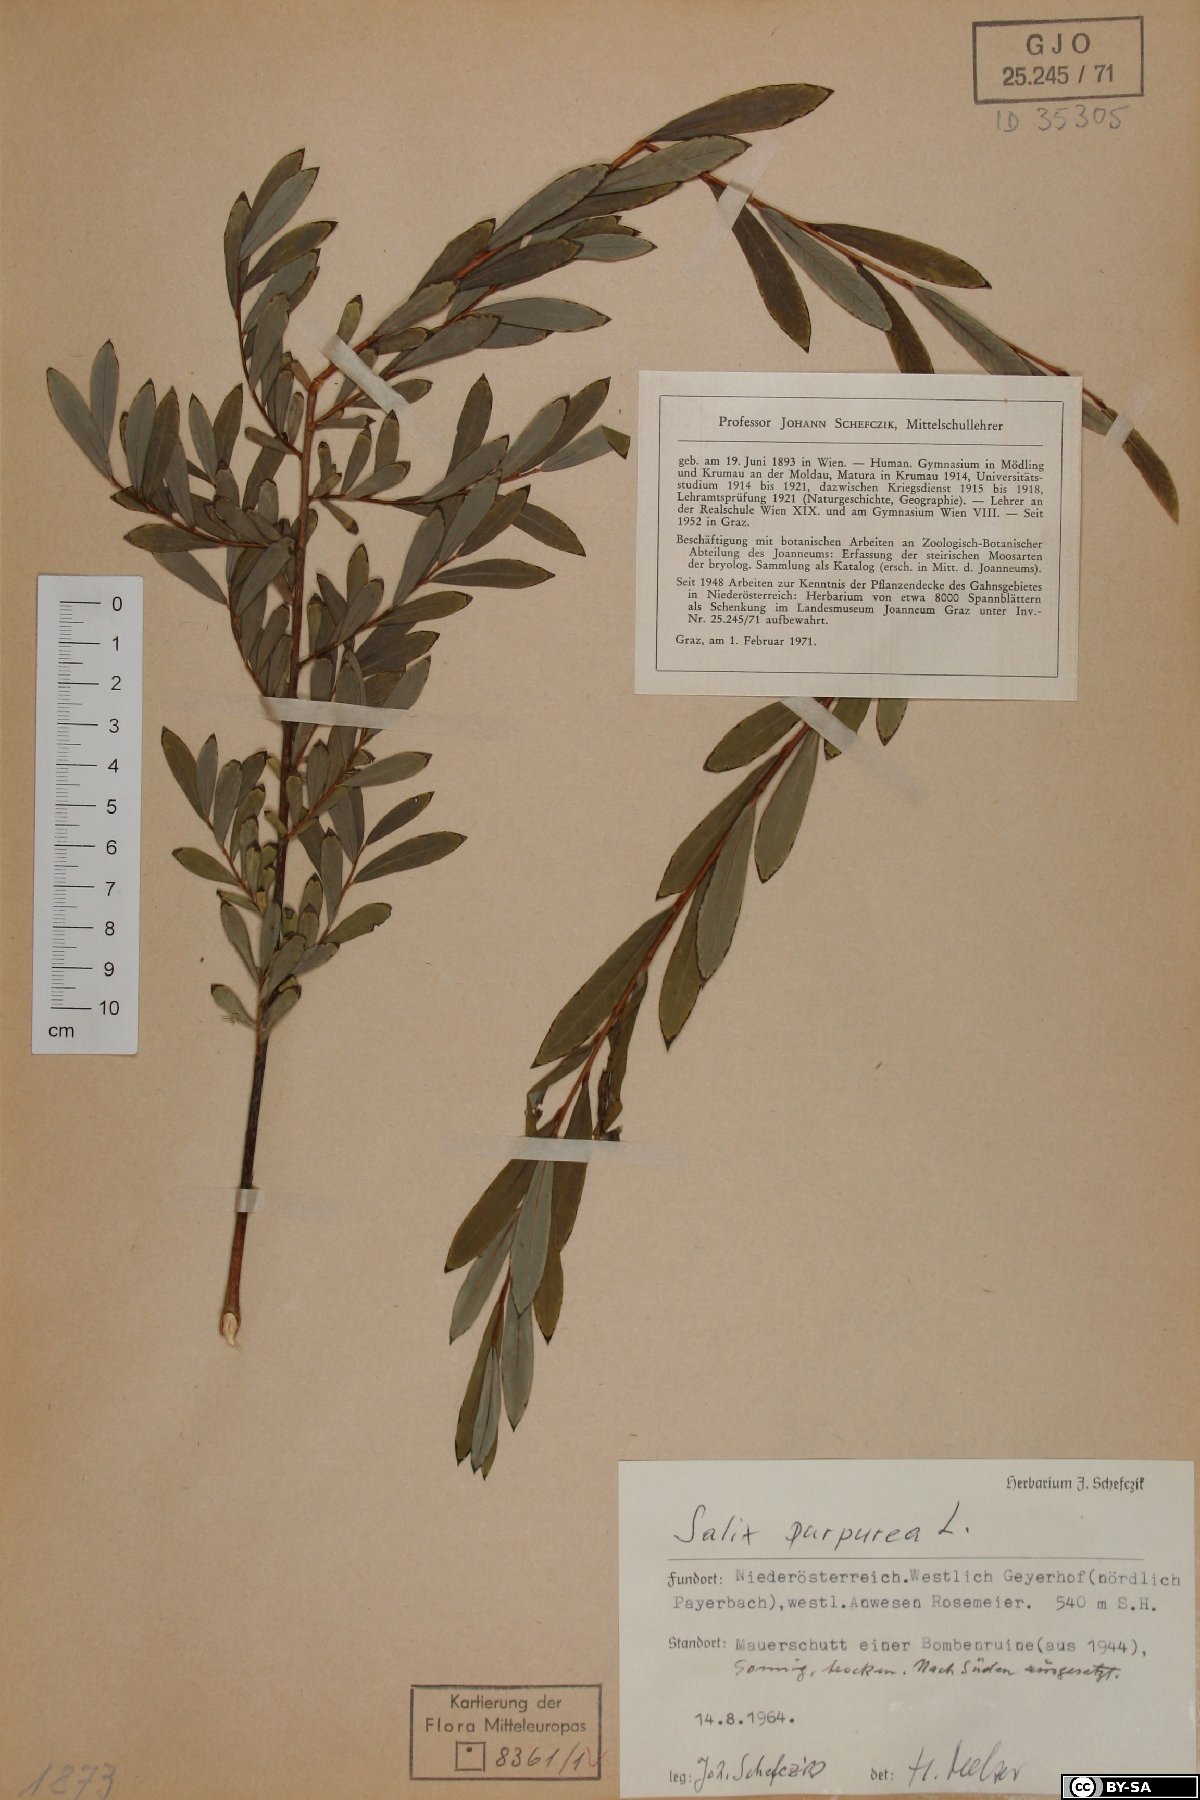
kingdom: Plantae
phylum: Tracheophyta
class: Magnoliopsida
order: Malpighiales
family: Salicaceae
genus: Salix
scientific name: Salix purpurea
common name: Purple willow
